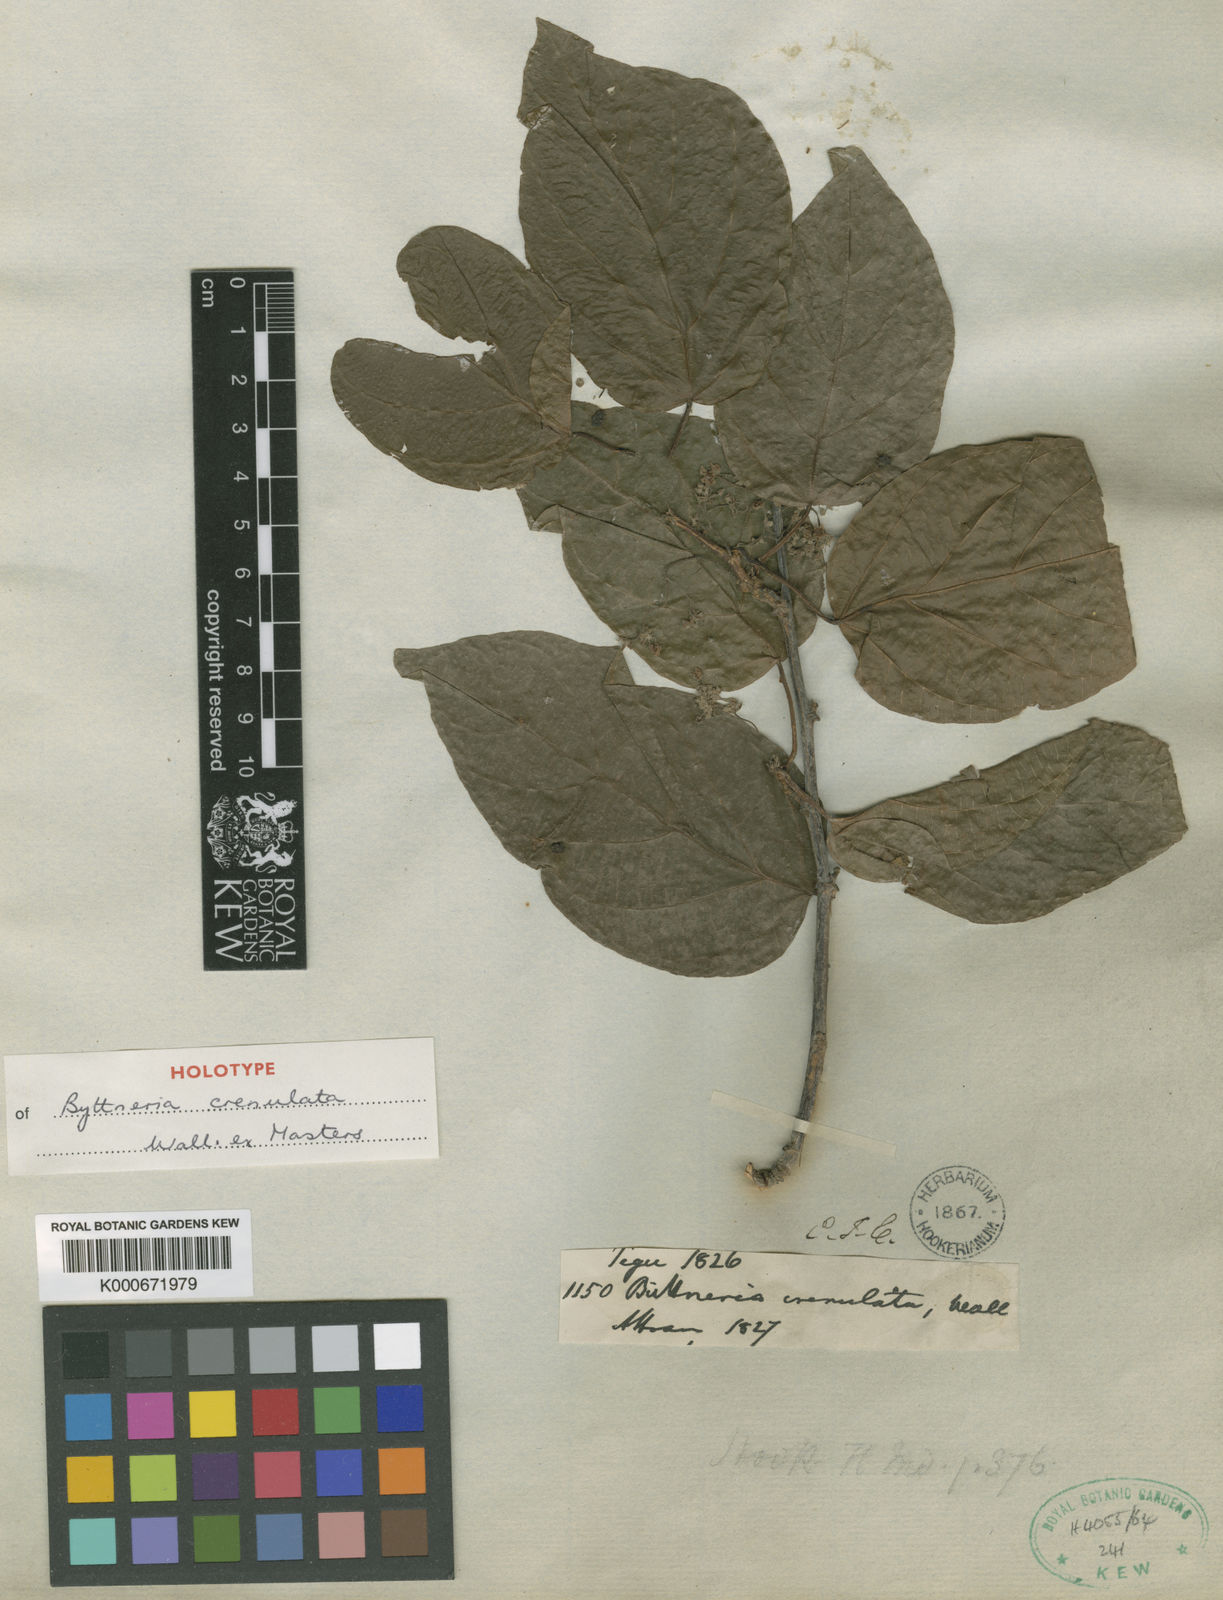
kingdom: Plantae
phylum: Tracheophyta
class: Magnoliopsida
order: Malvales
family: Malvaceae
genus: Byttneria
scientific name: Byttneria crenulata
